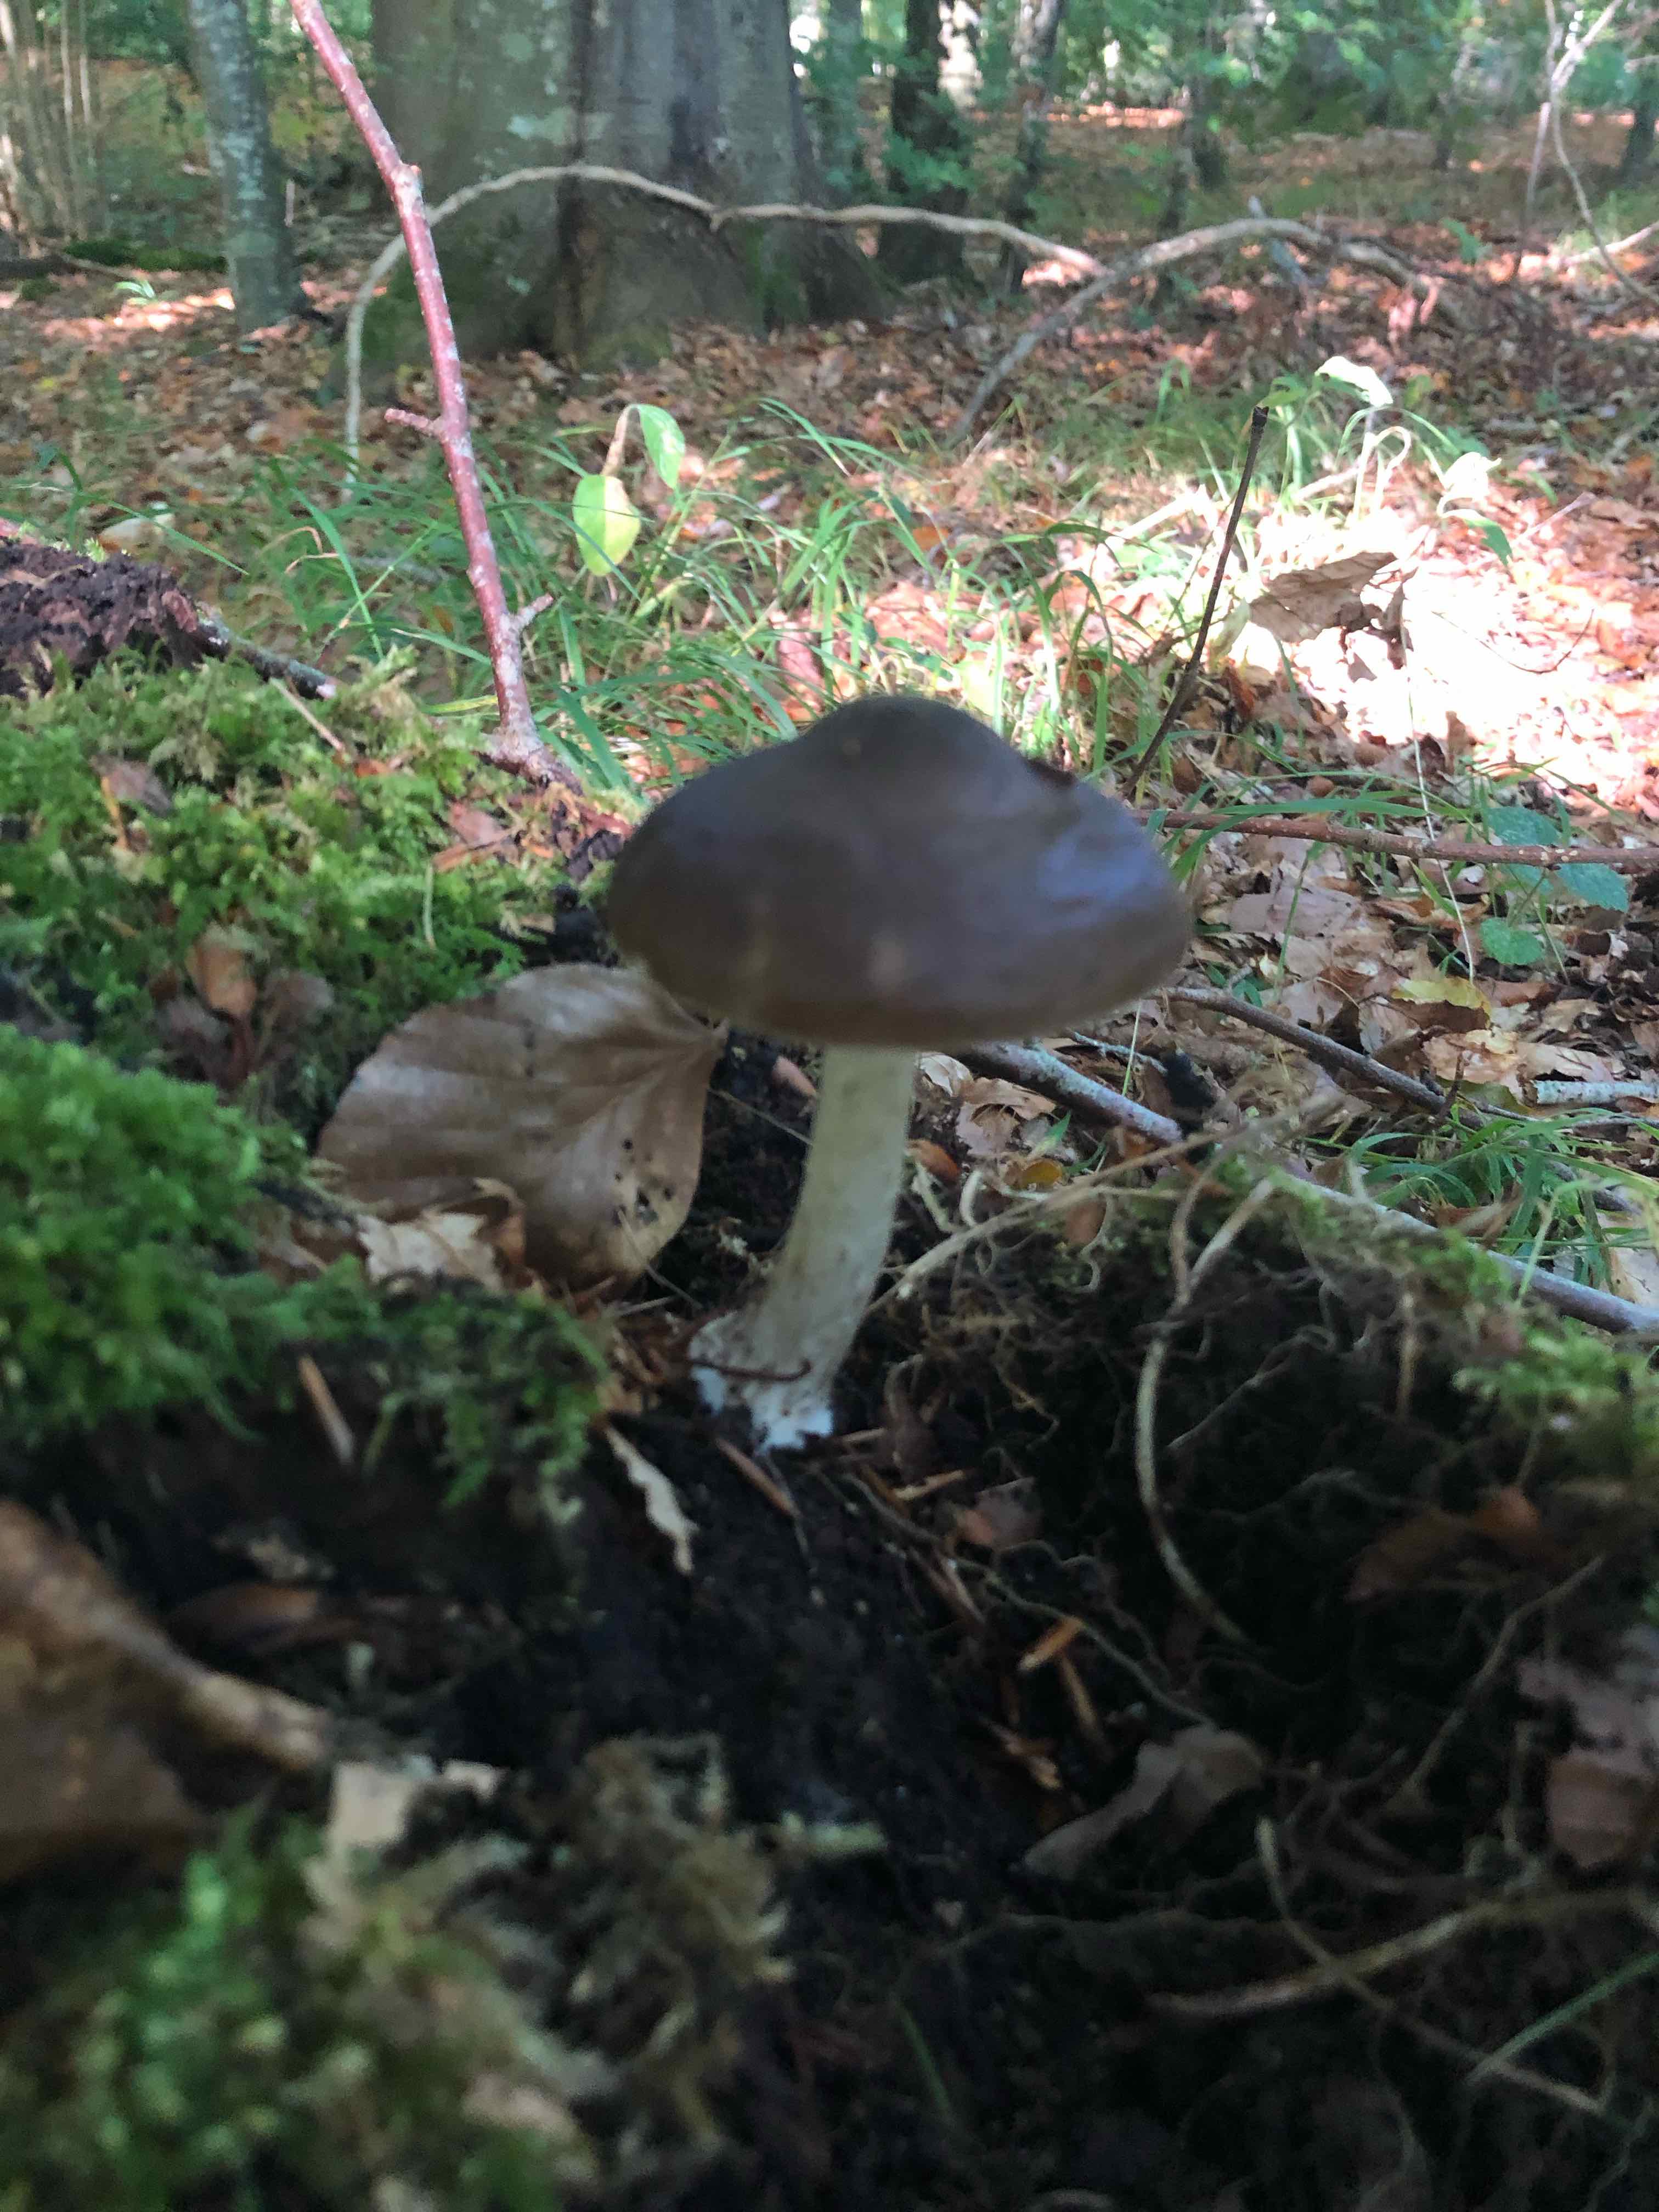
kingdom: Fungi
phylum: Basidiomycota
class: Agaricomycetes
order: Agaricales
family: Pluteaceae
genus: Pluteus
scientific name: Pluteus cervinus
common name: sodfarvet skærmhat
